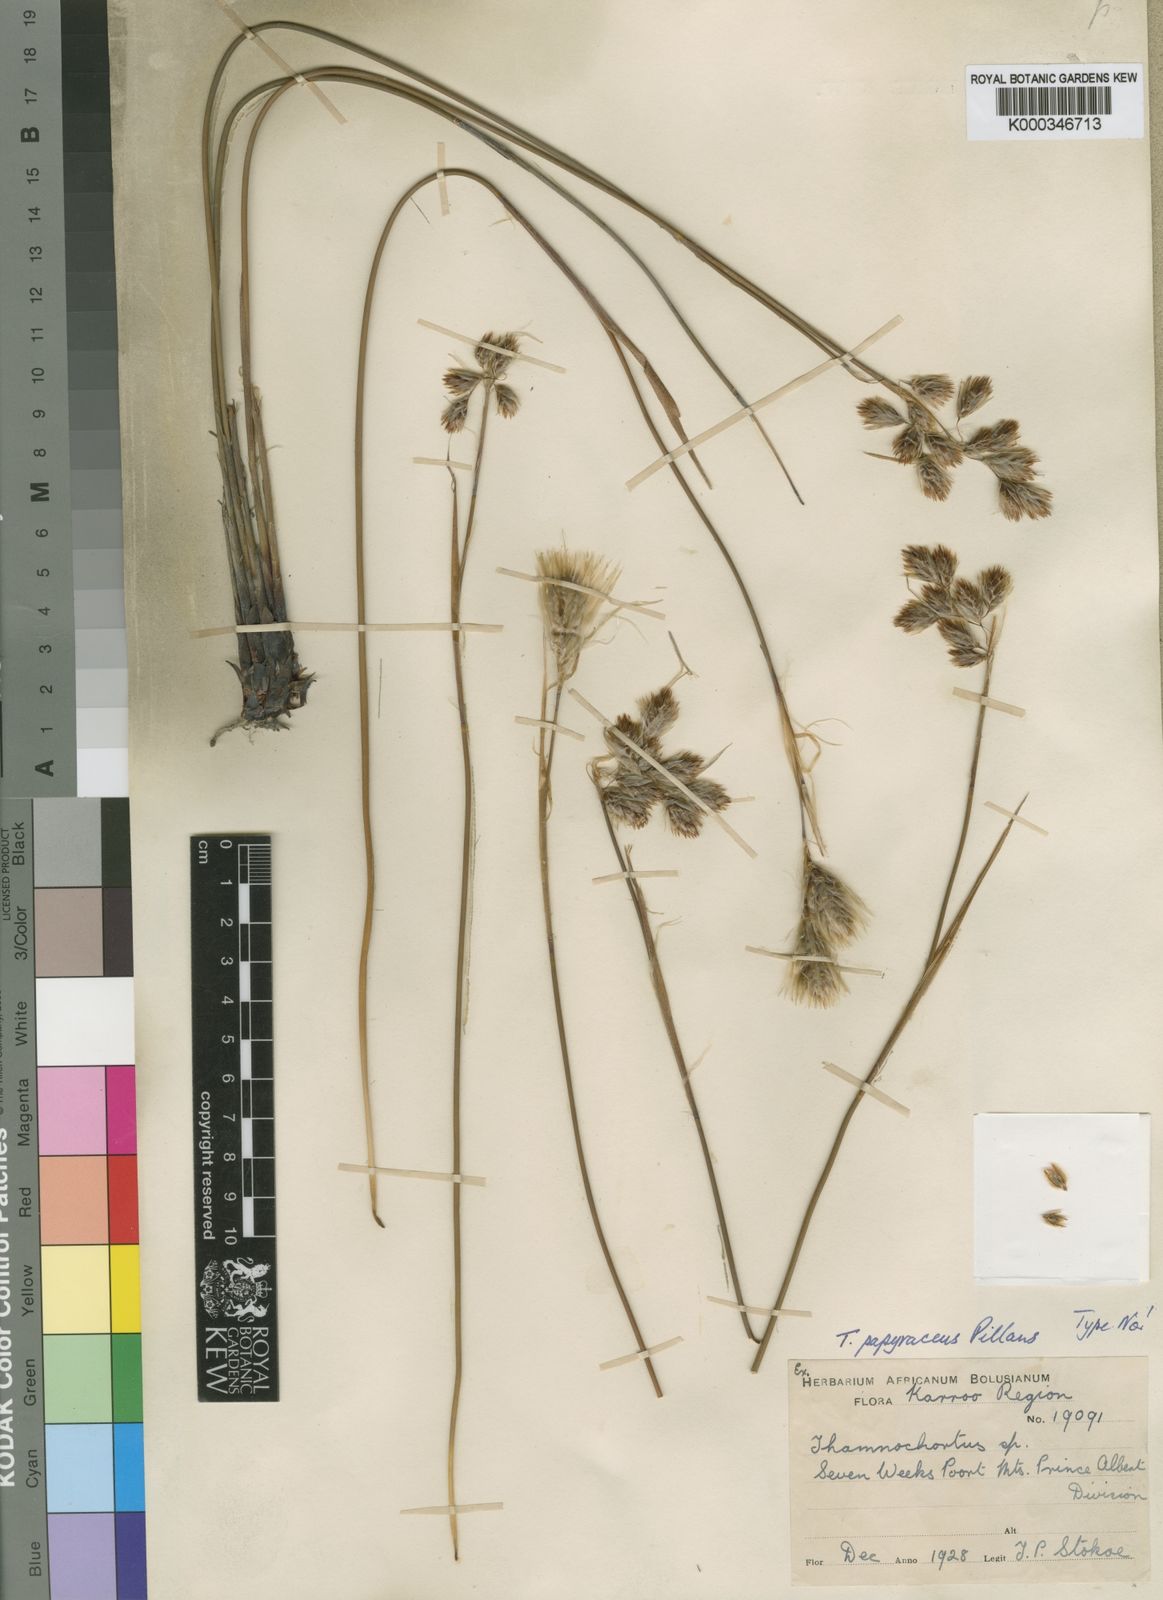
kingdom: Plantae
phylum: Tracheophyta
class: Liliopsida
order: Poales
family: Restionaceae
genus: Thamnochortus
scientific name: Thamnochortus papyraceus
